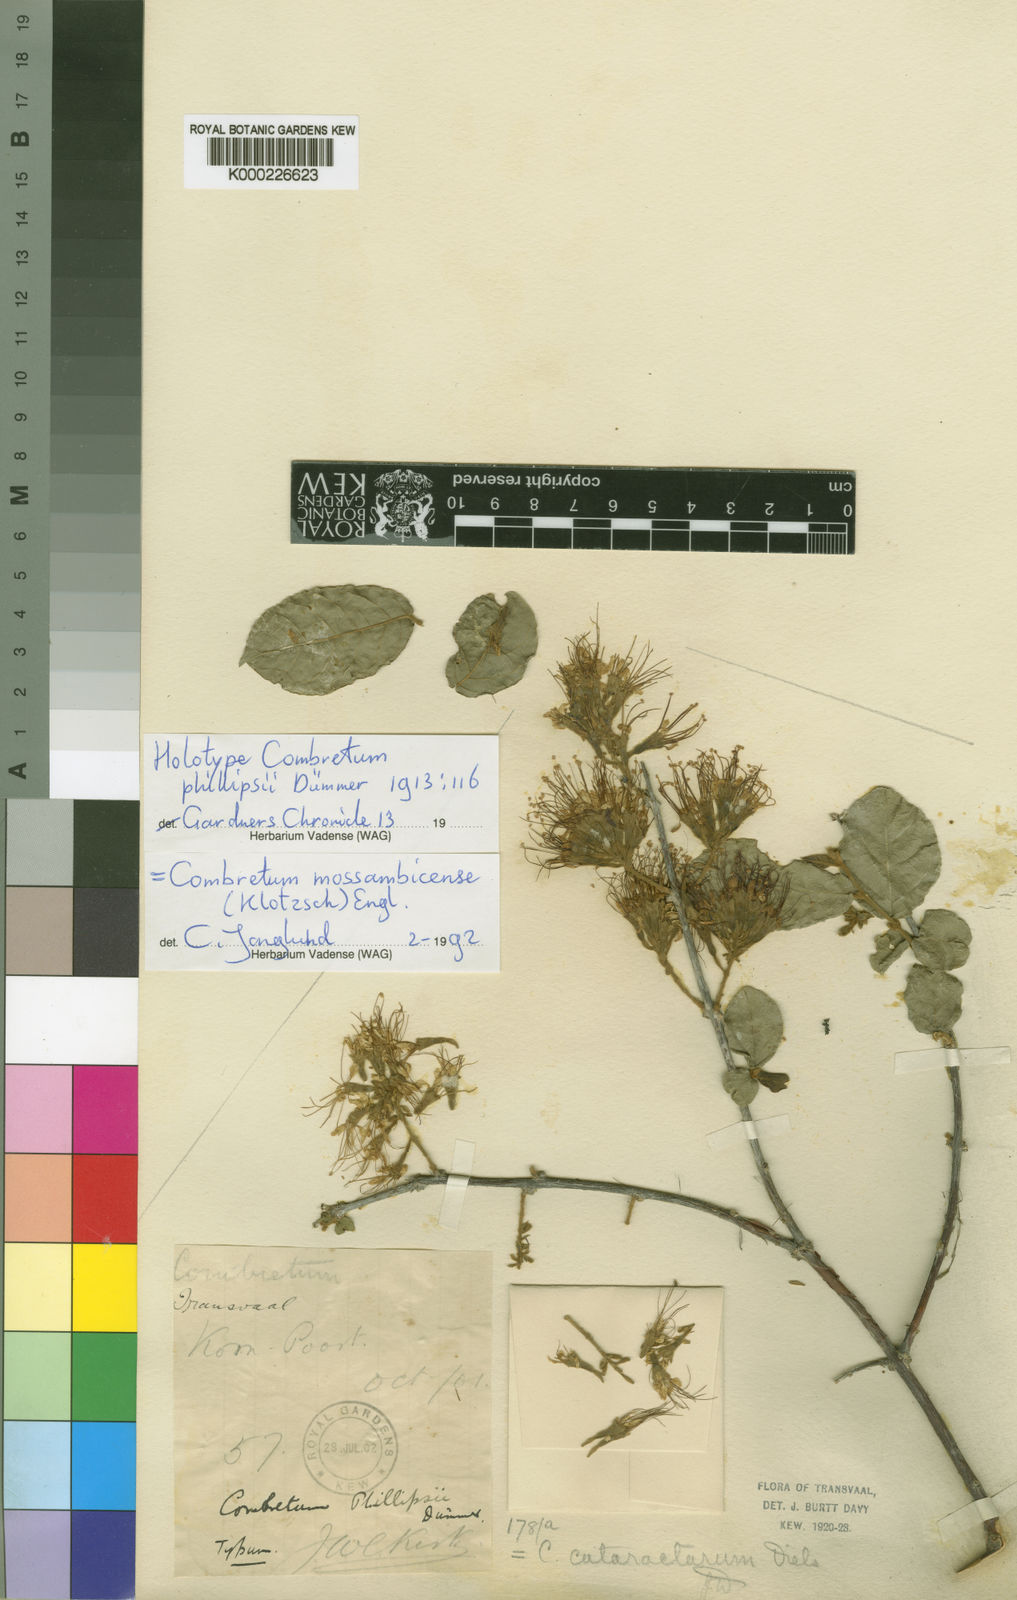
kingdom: Plantae
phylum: Tracheophyta
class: Magnoliopsida
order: Myrtales
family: Combretaceae
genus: Combretum
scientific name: Combretum mossambicense
